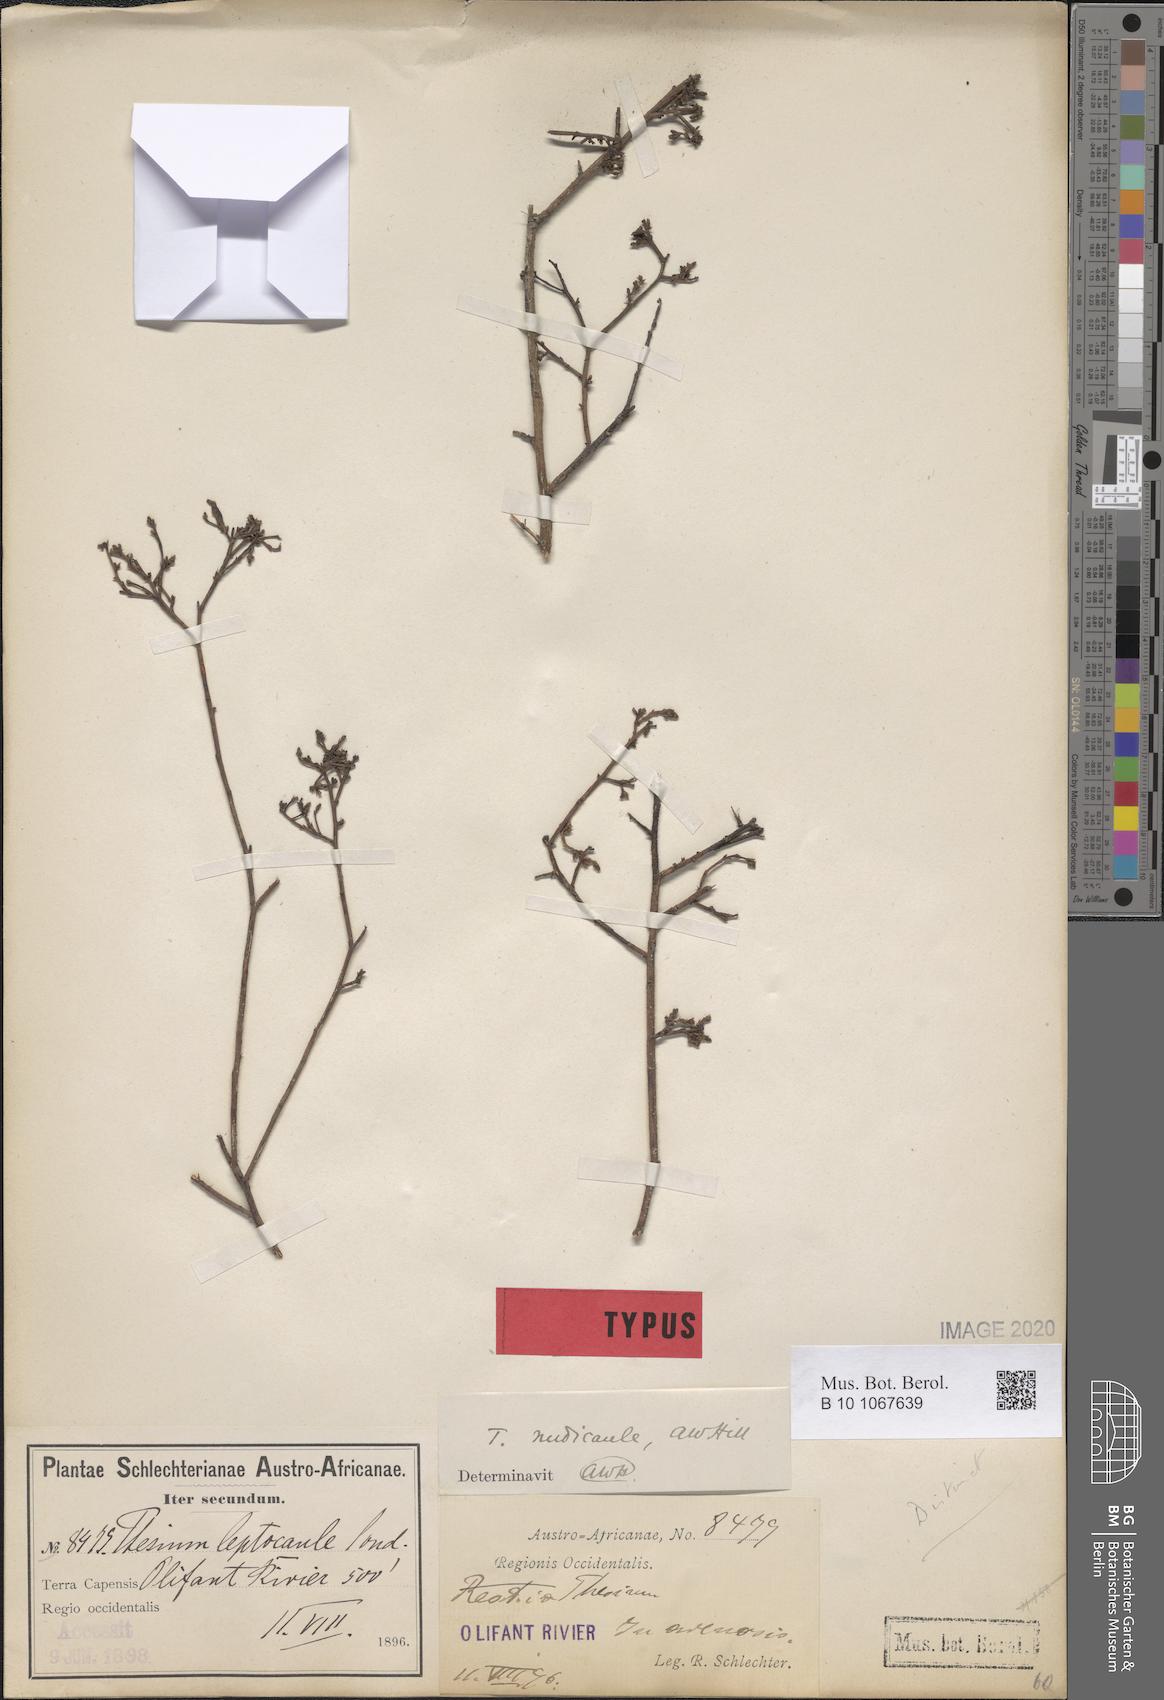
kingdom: Plantae
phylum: Tracheophyta
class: Magnoliopsida
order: Santalales
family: Thesiaceae
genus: Thesium
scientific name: Thesium nudicaule
